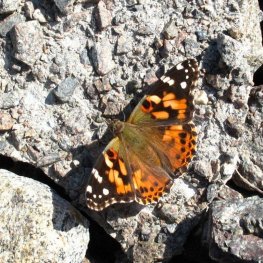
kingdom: Animalia
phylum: Arthropoda
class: Insecta
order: Lepidoptera
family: Nymphalidae
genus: Vanessa
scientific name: Vanessa cardui
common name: Painted Lady
